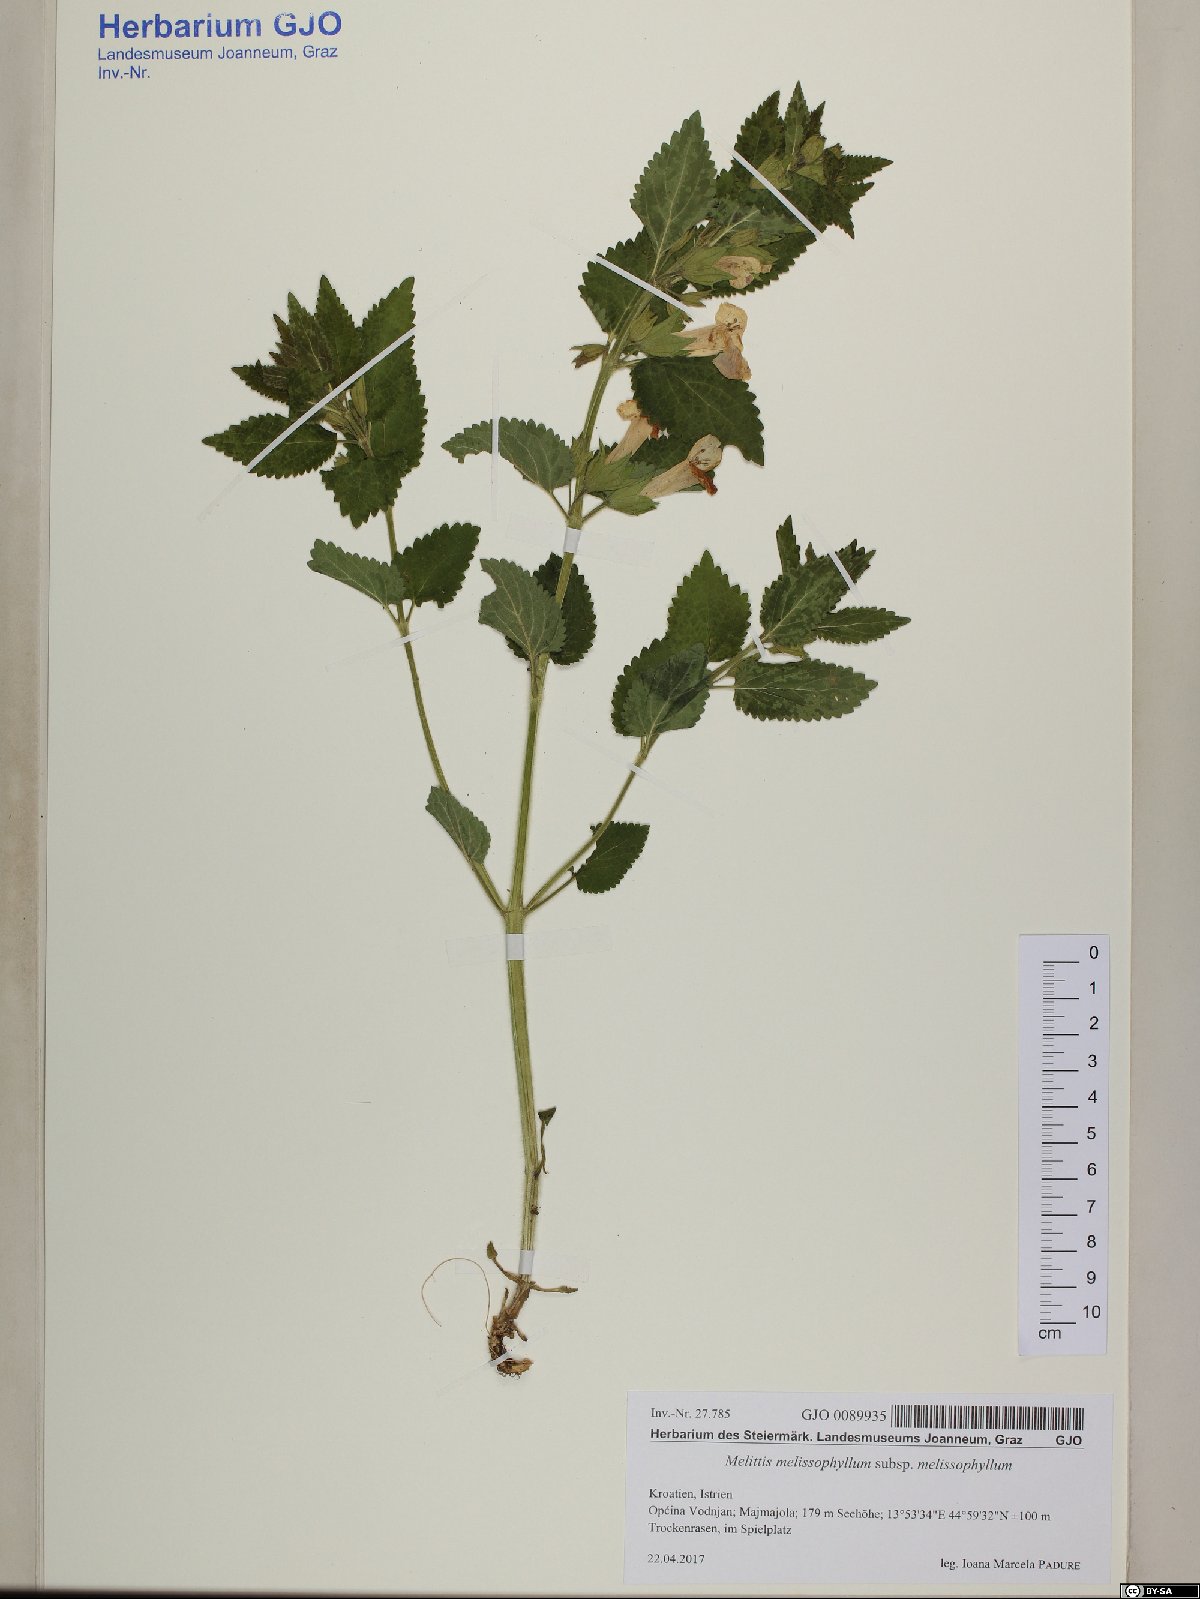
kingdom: Plantae
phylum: Tracheophyta
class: Magnoliopsida
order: Lamiales
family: Lamiaceae
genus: Melittis
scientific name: Melittis melissophyllum
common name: Bastard balm
